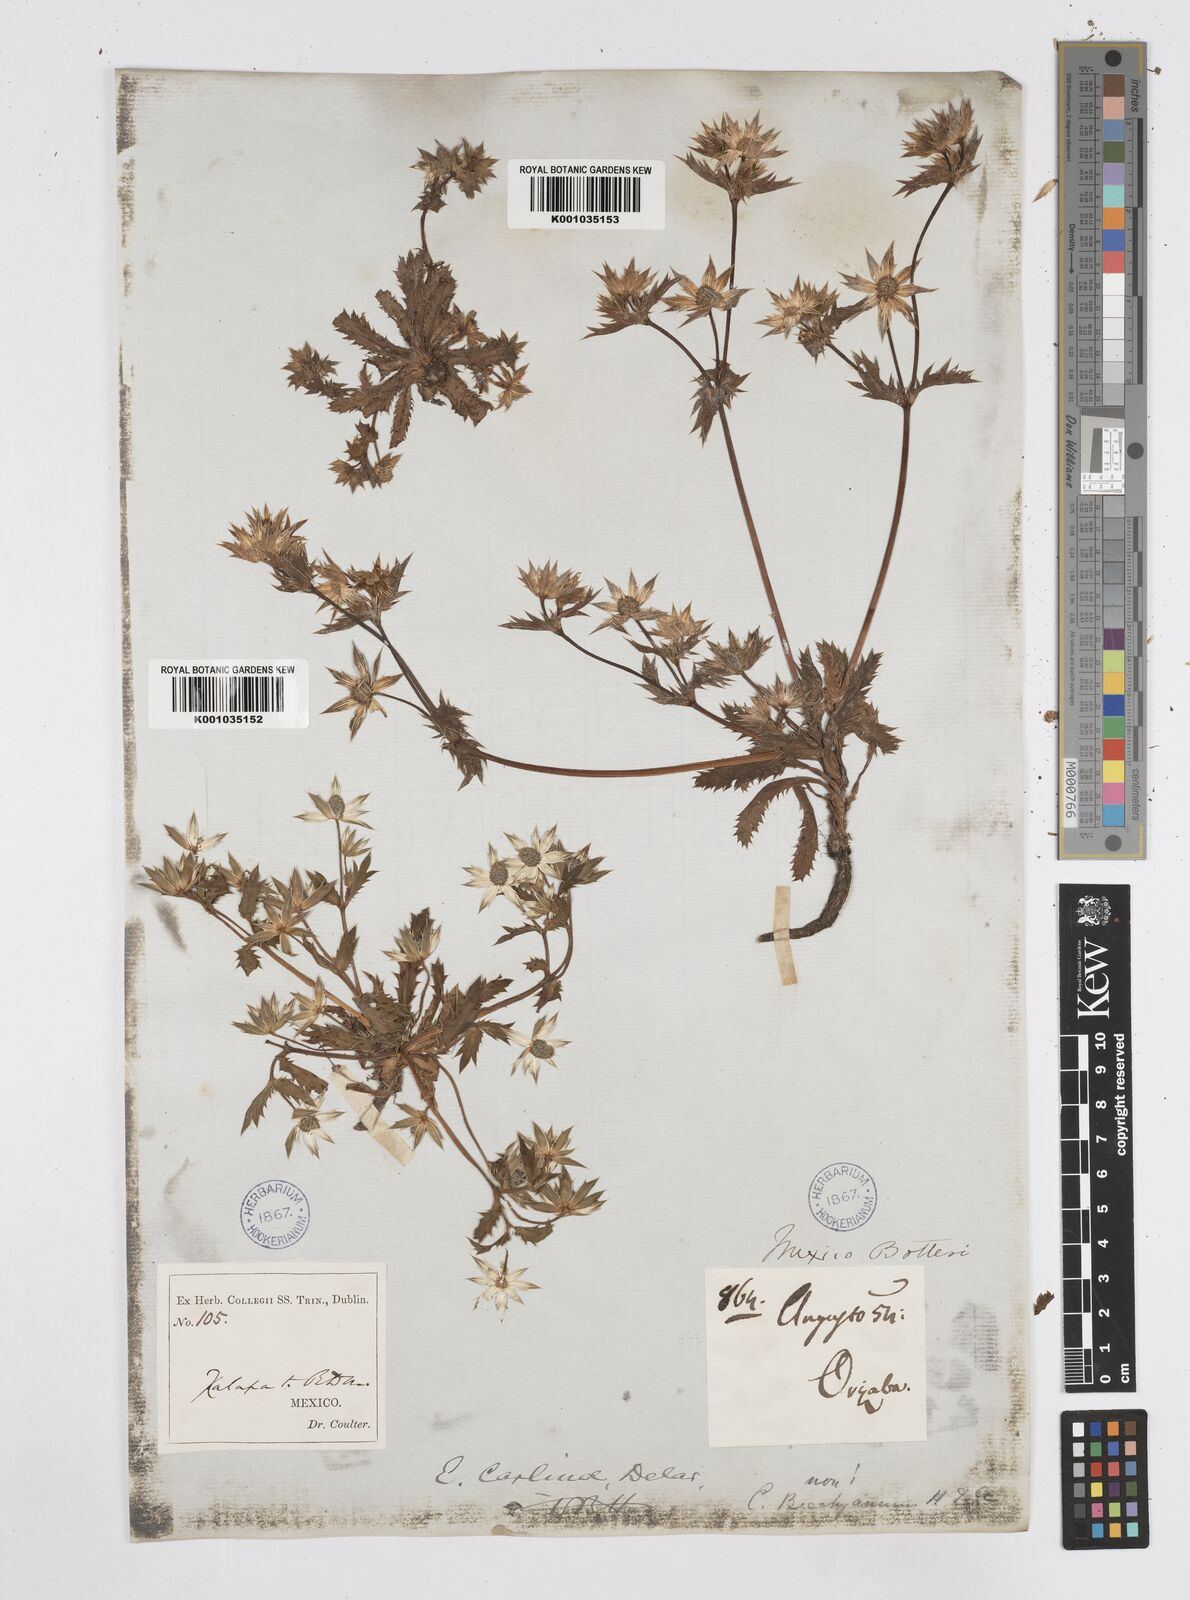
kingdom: Plantae
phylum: Tracheophyta
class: Magnoliopsida
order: Apiales
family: Apiaceae
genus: Eryngium
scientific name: Eryngium carlinae
